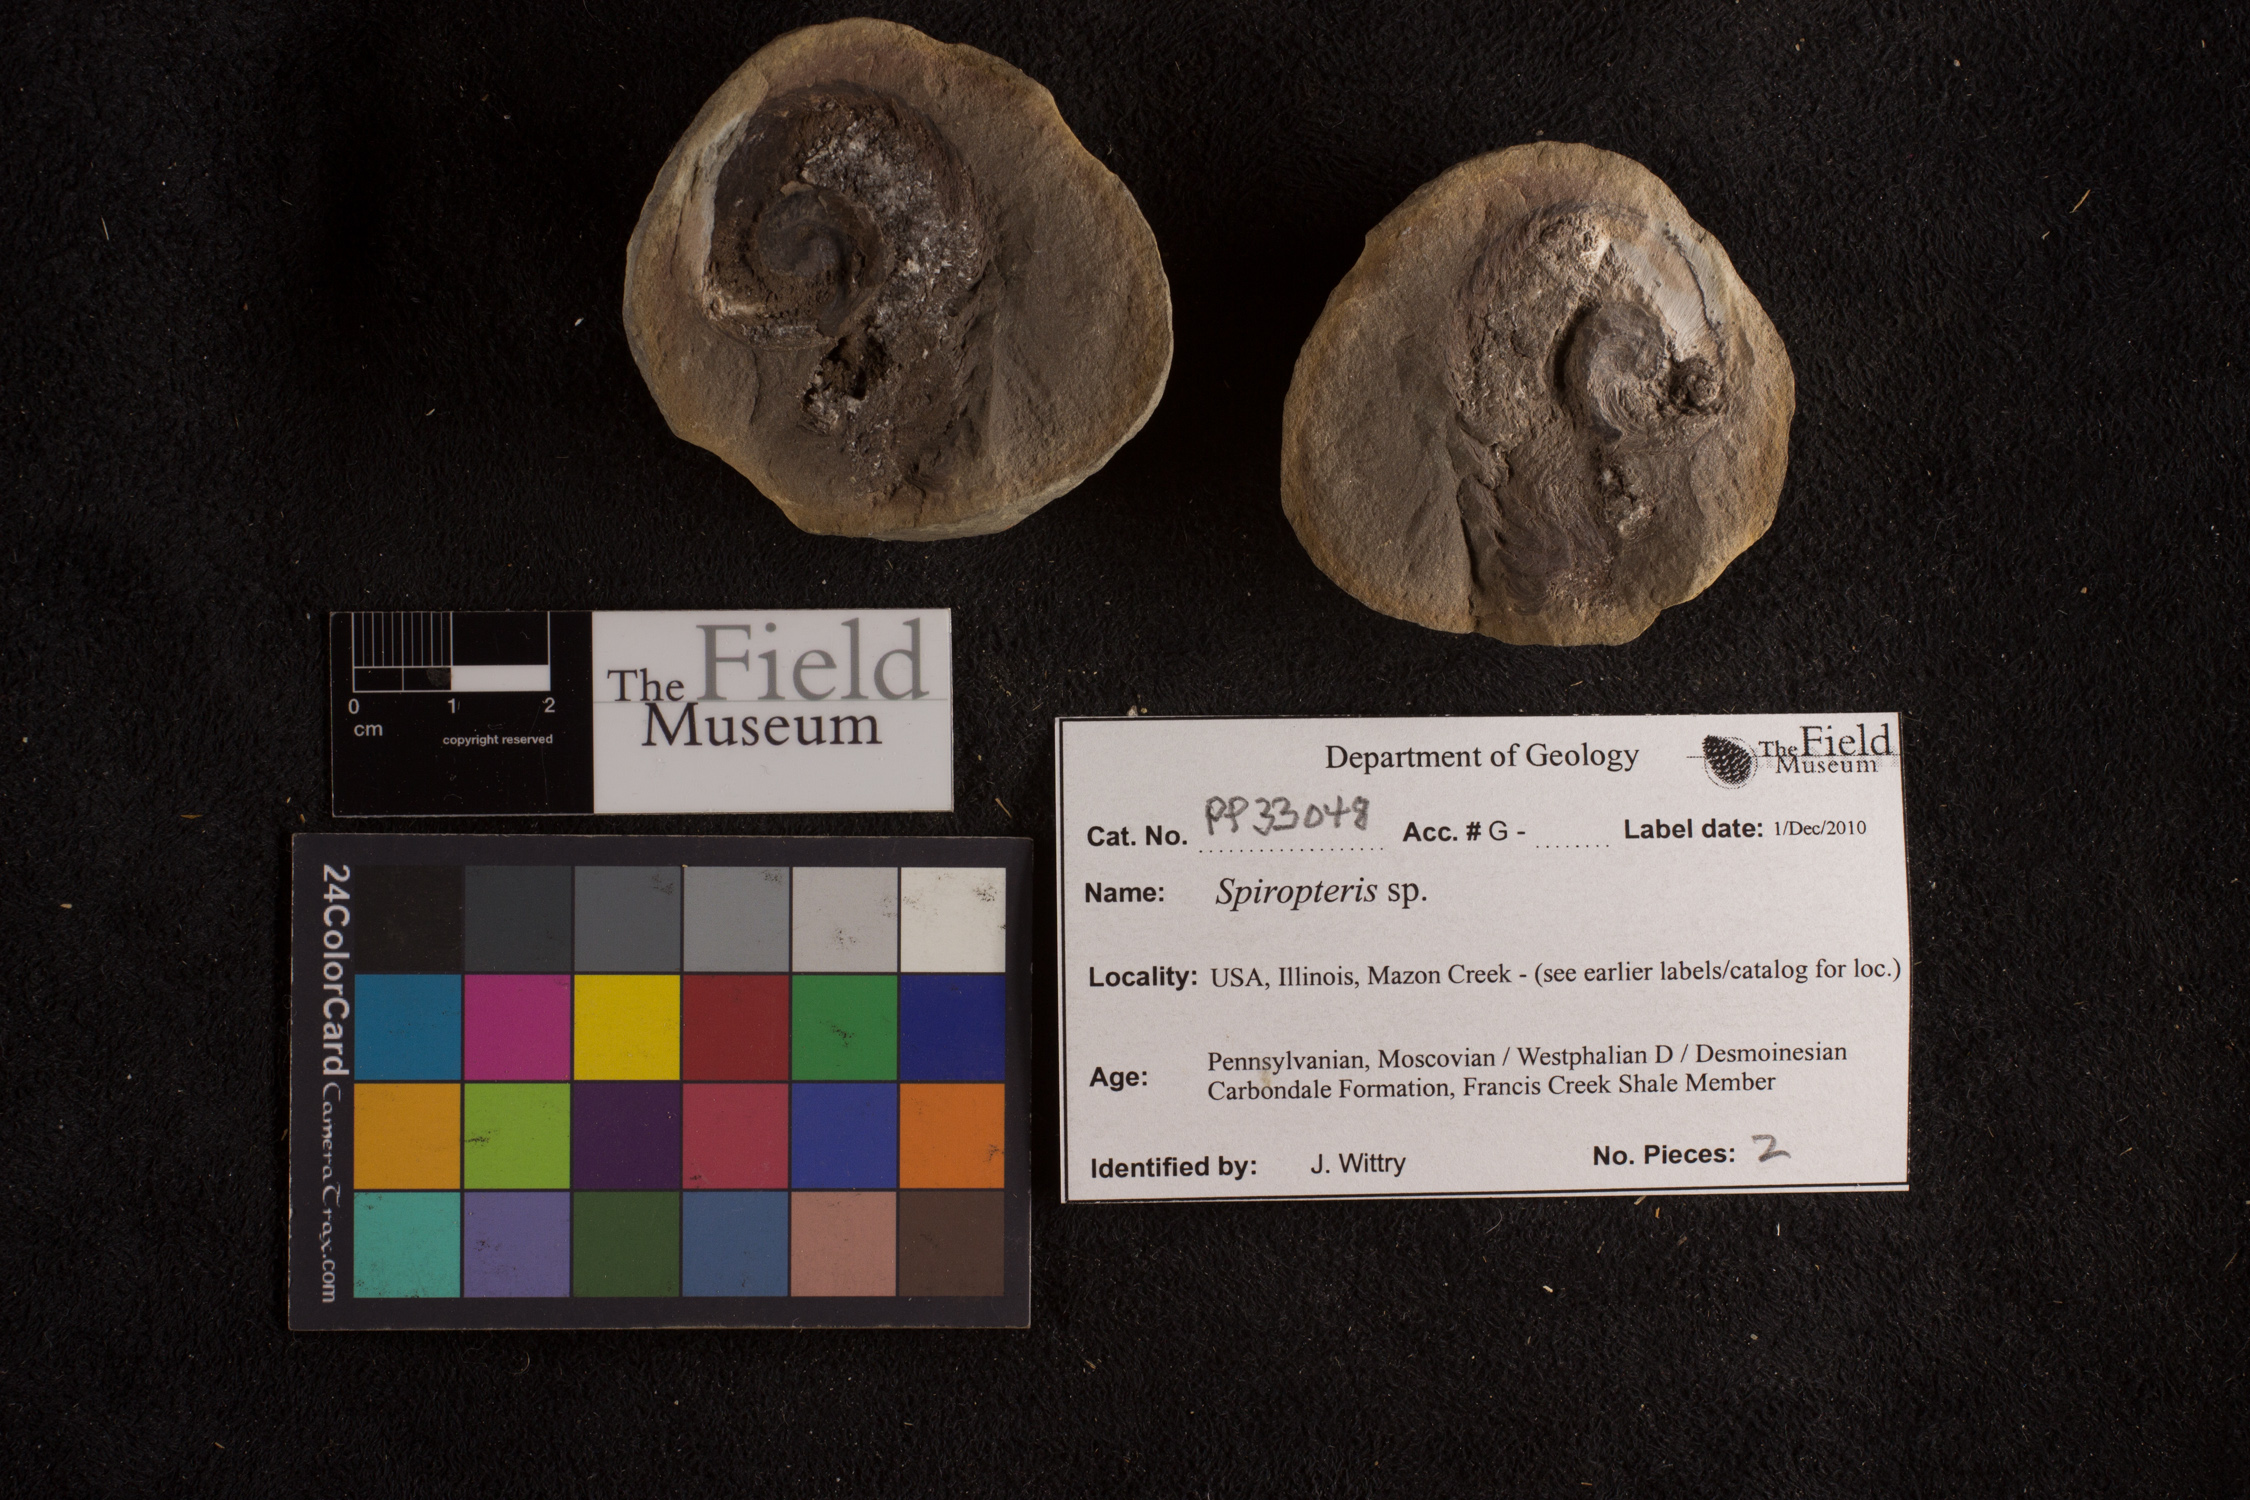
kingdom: Plantae
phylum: Tracheophyta
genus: Spiropteris
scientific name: Spiropteris
